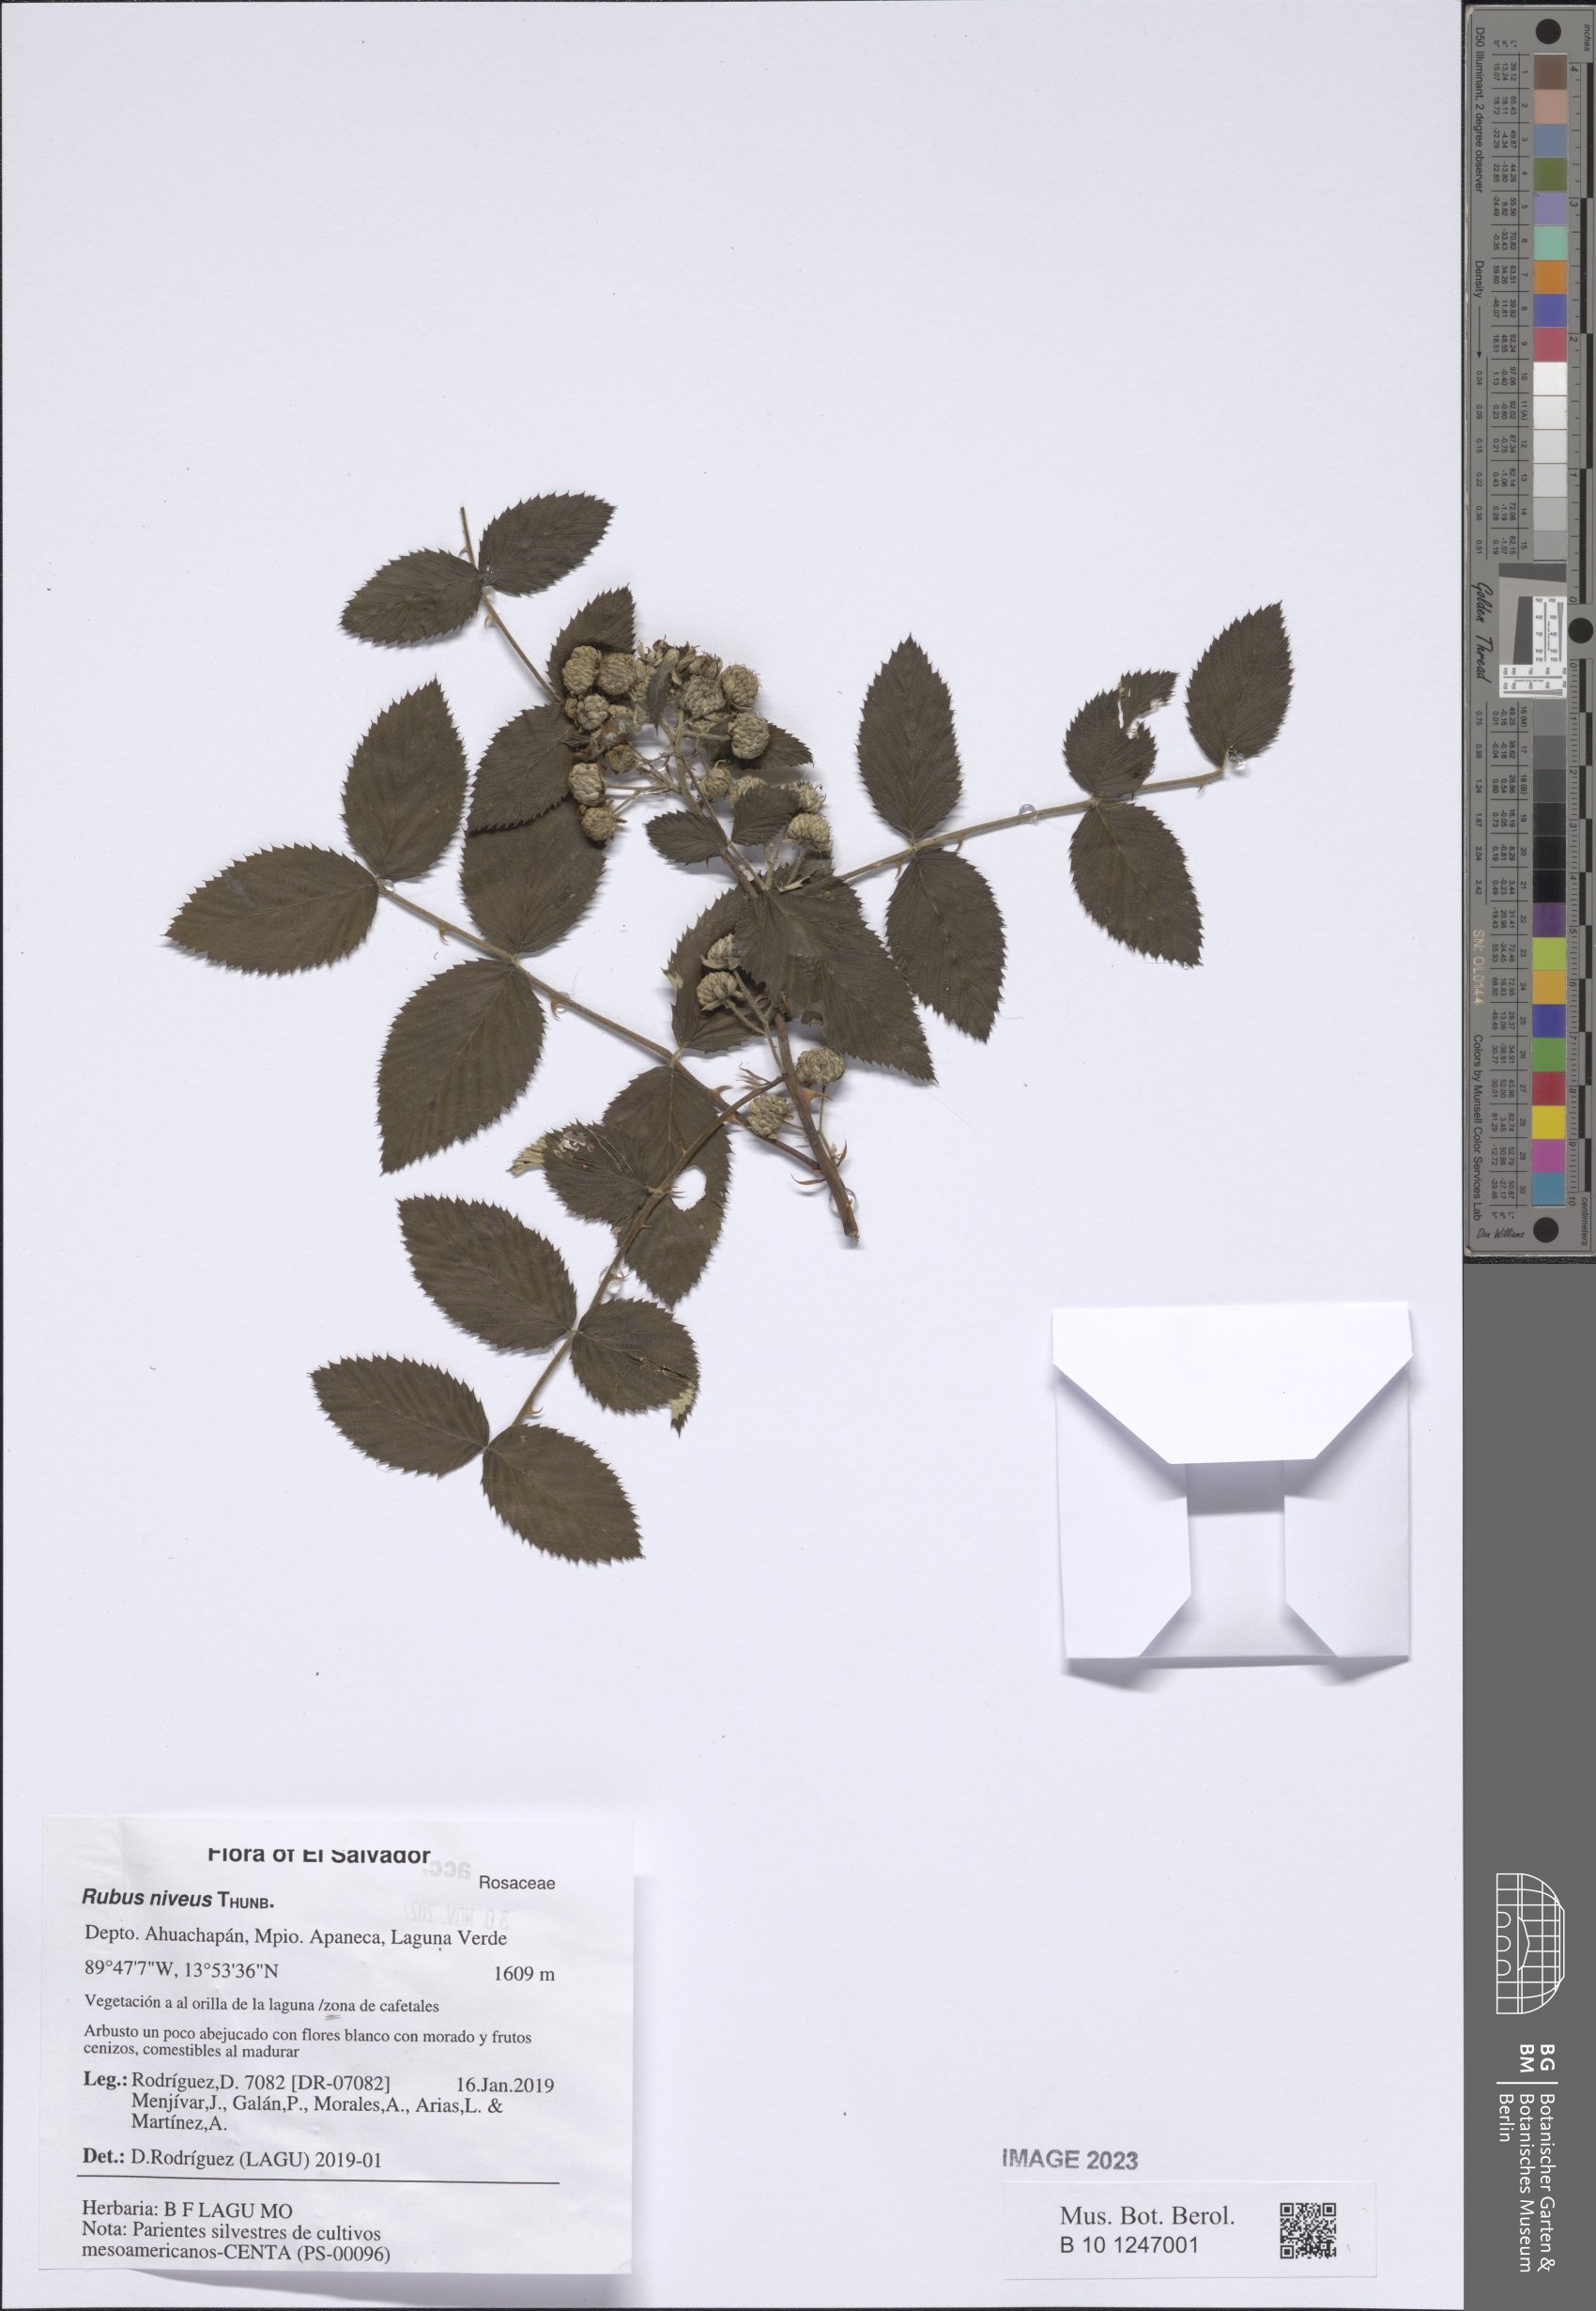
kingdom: Plantae
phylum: Tracheophyta
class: Magnoliopsida
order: Rosales
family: Rosaceae
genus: Rubus
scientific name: Rubus niveus
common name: Snowpeaks raspberry
